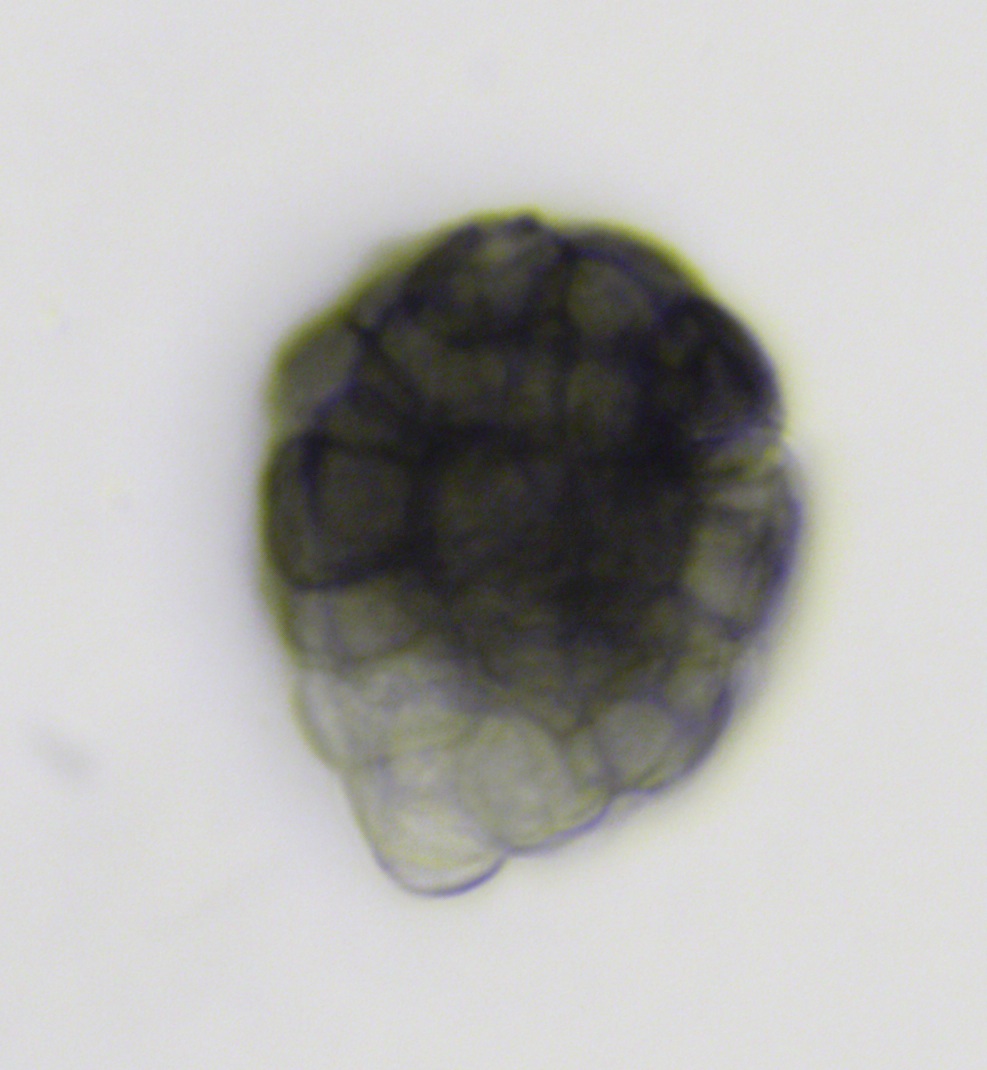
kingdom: Fungi
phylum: Ascomycota
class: Dothideomycetes
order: Dothideales
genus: Monodictys
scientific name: Monodictys melanopa
